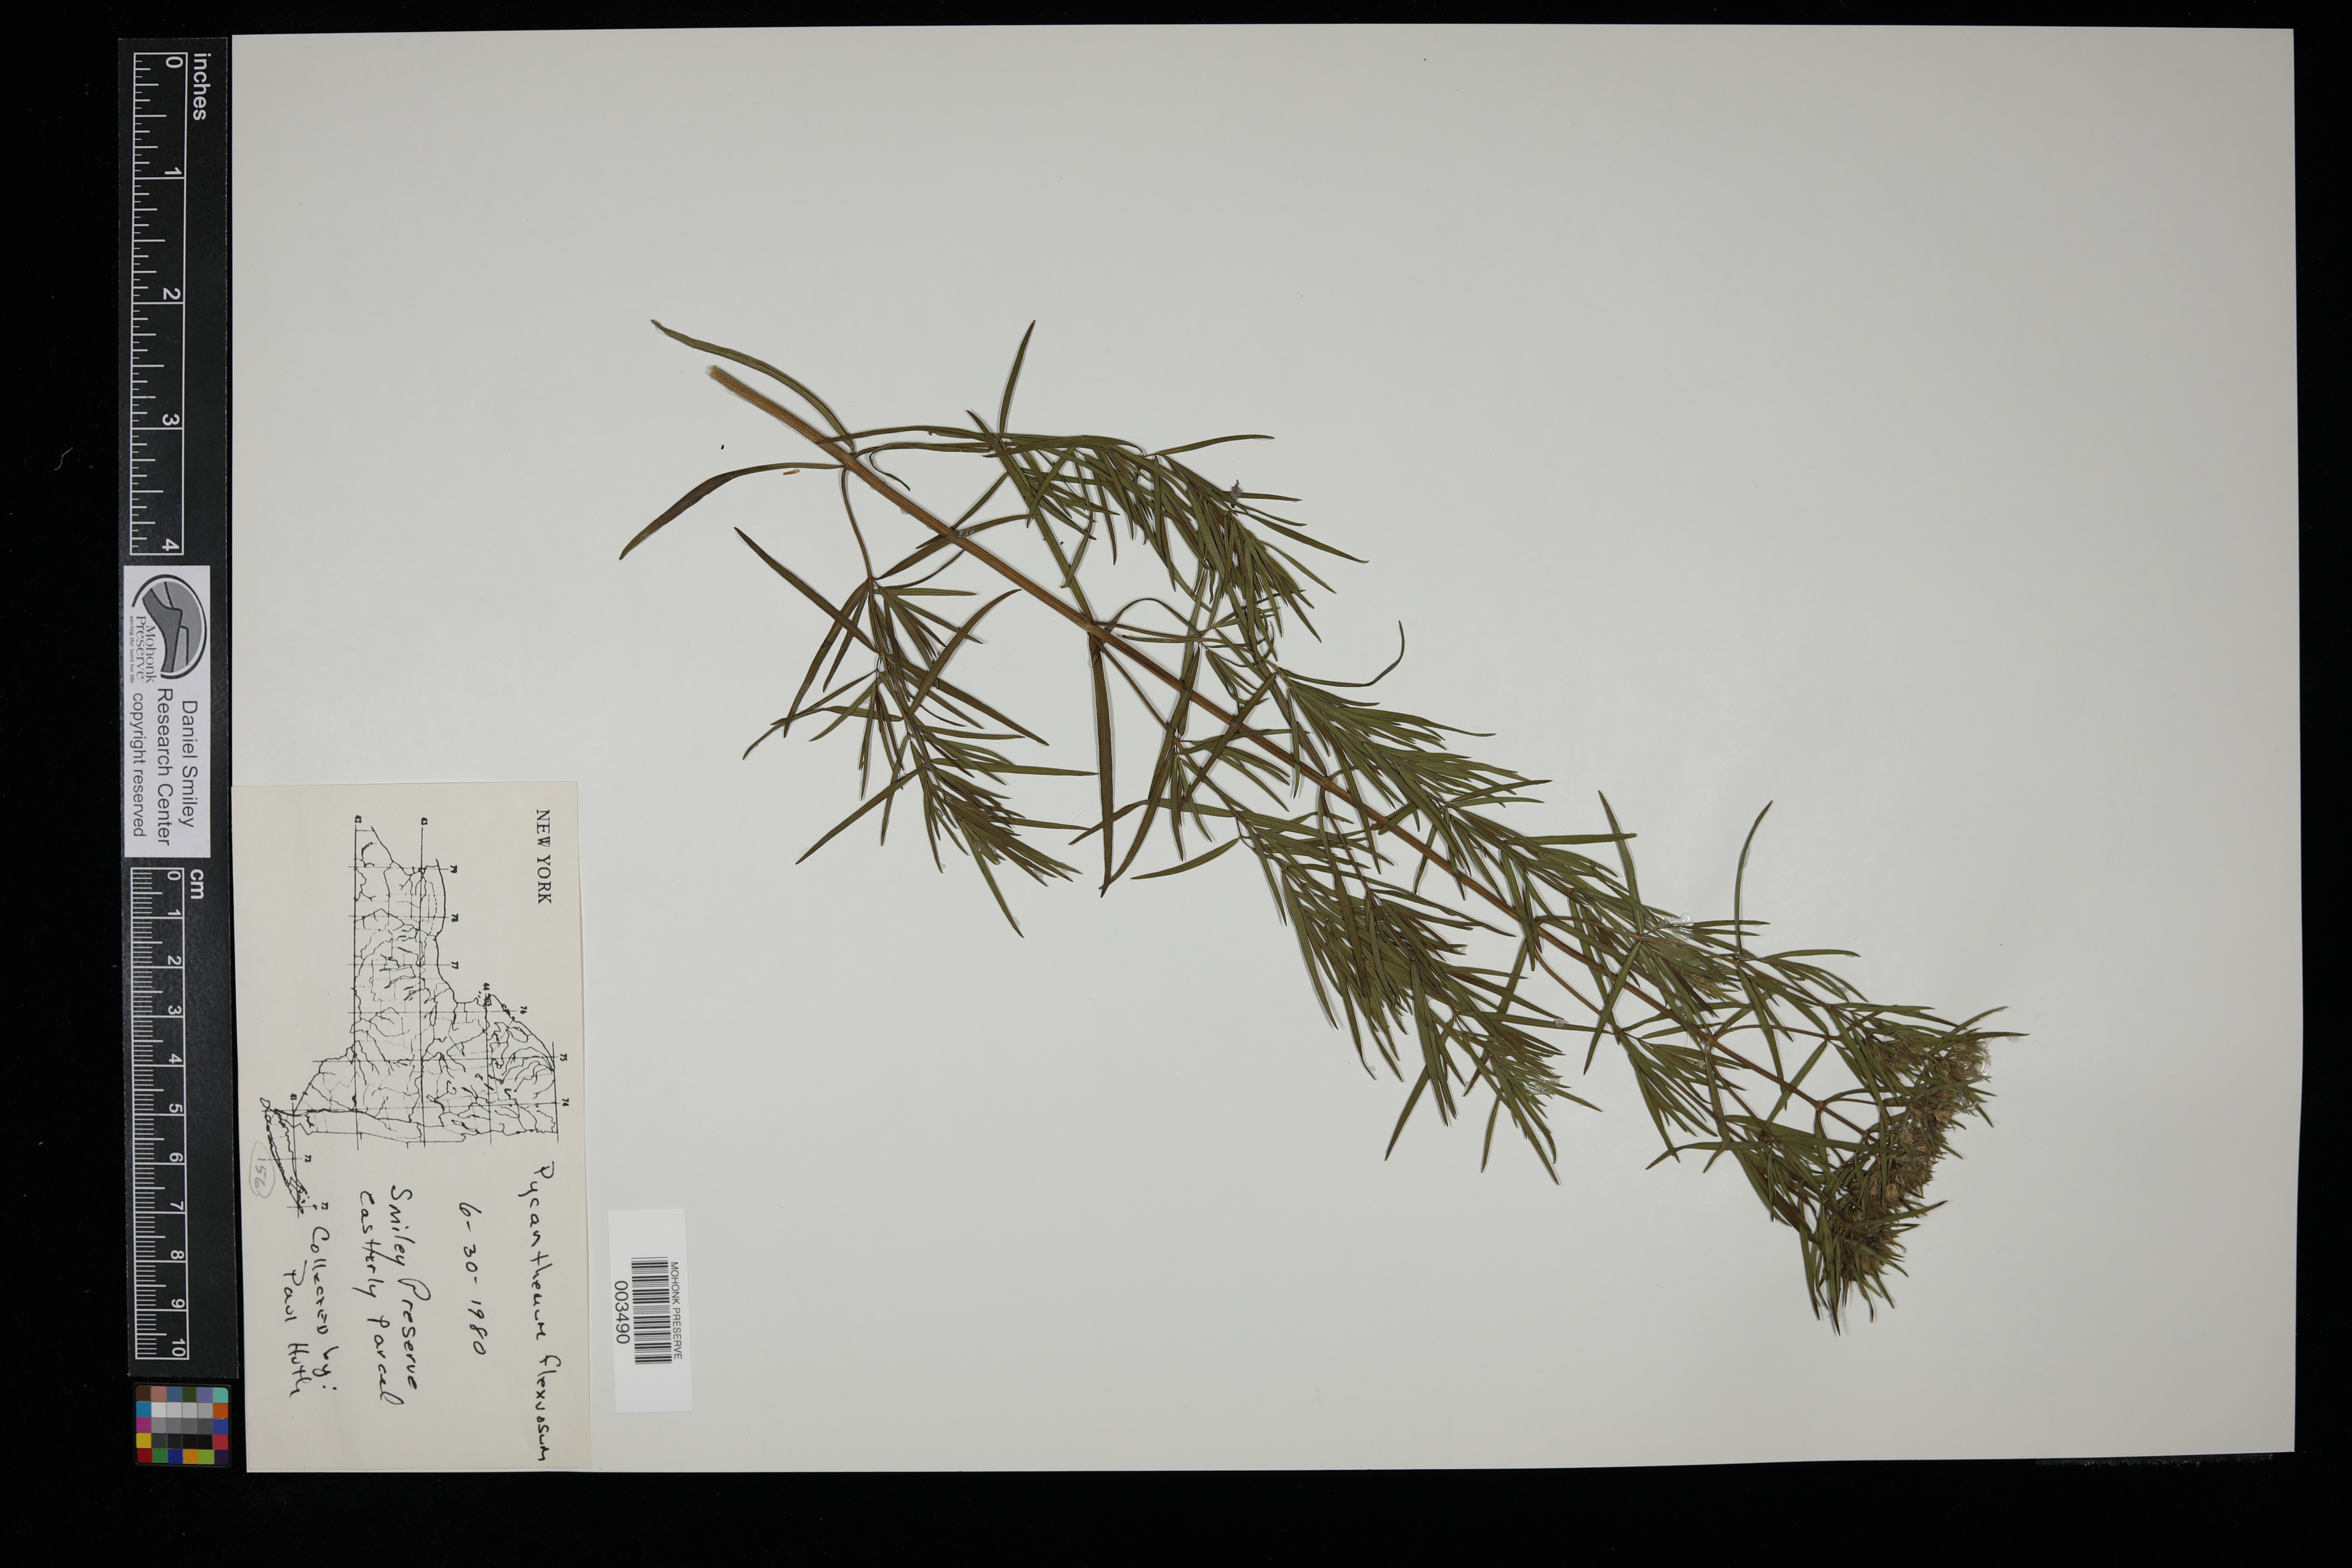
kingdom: Plantae
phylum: Tracheophyta
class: Magnoliopsida
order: Lamiales
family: Lamiaceae
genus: Pycnanthemum
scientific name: Pycnanthemum flexuosum
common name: Appalachian mountain-mint
